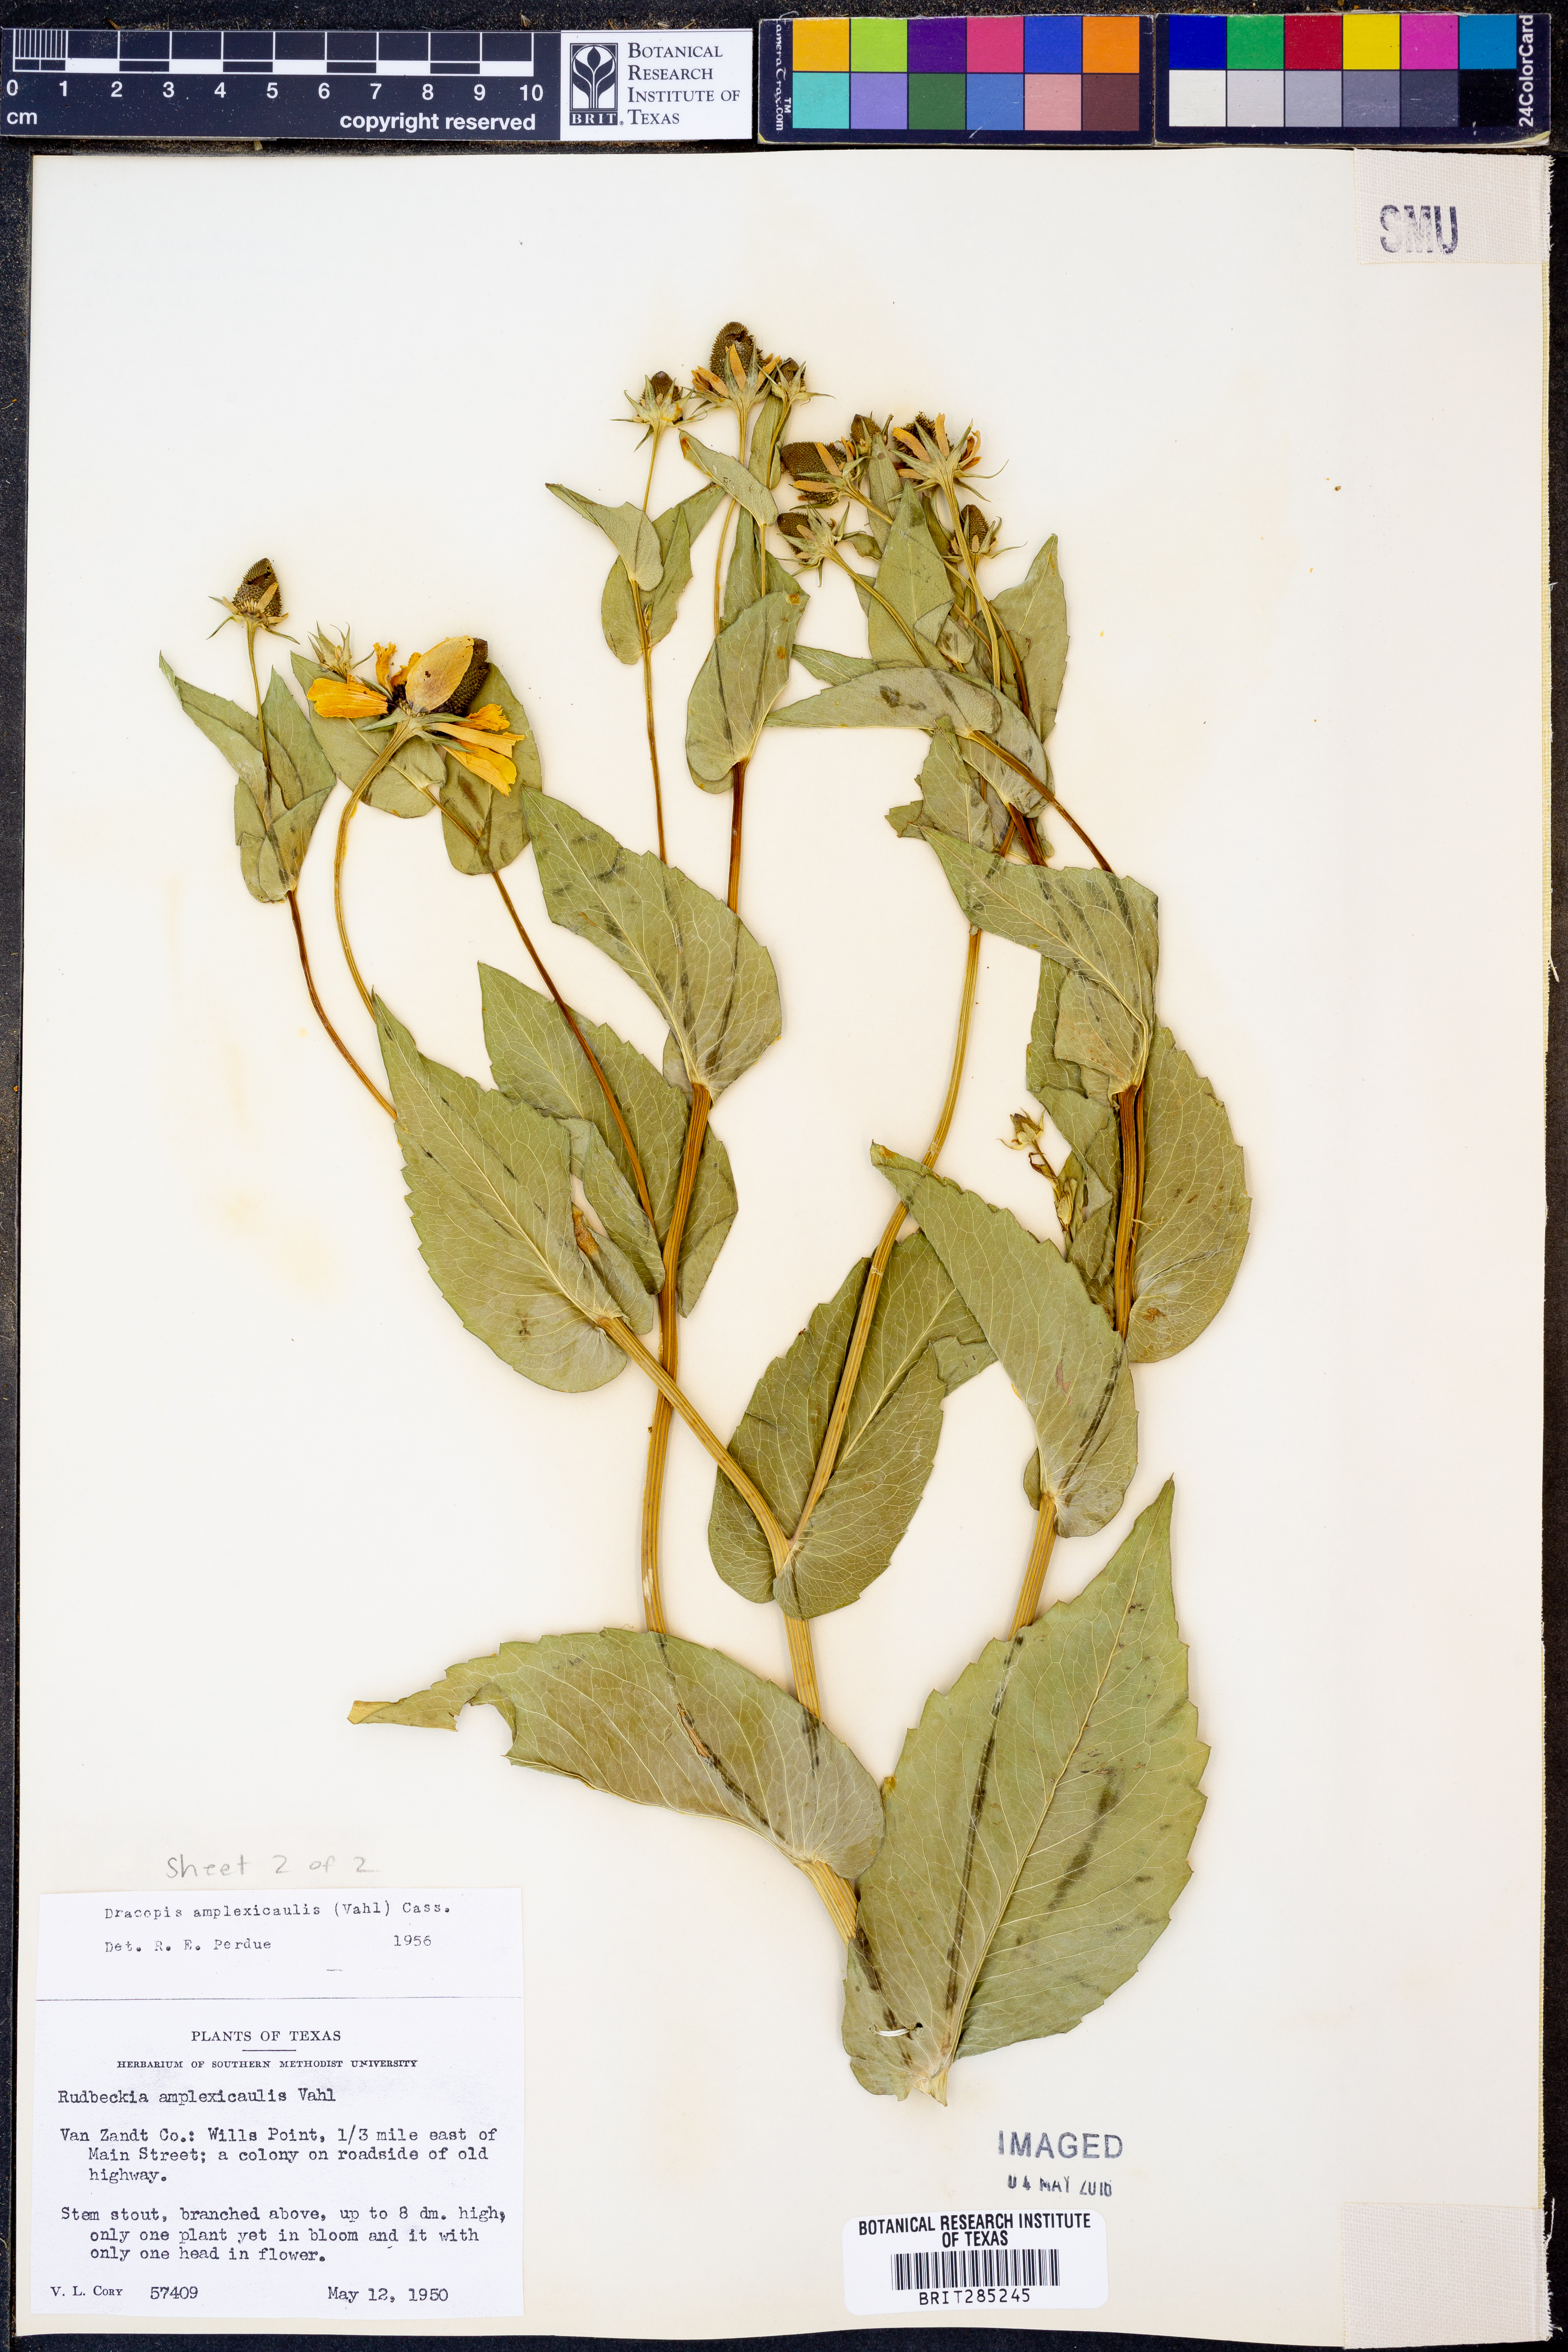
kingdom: Plantae
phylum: Tracheophyta
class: Magnoliopsida
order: Asterales
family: Asteraceae
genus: Rudbeckia
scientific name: Rudbeckia amplexicaulis
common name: Clasping-leaf coneflower
